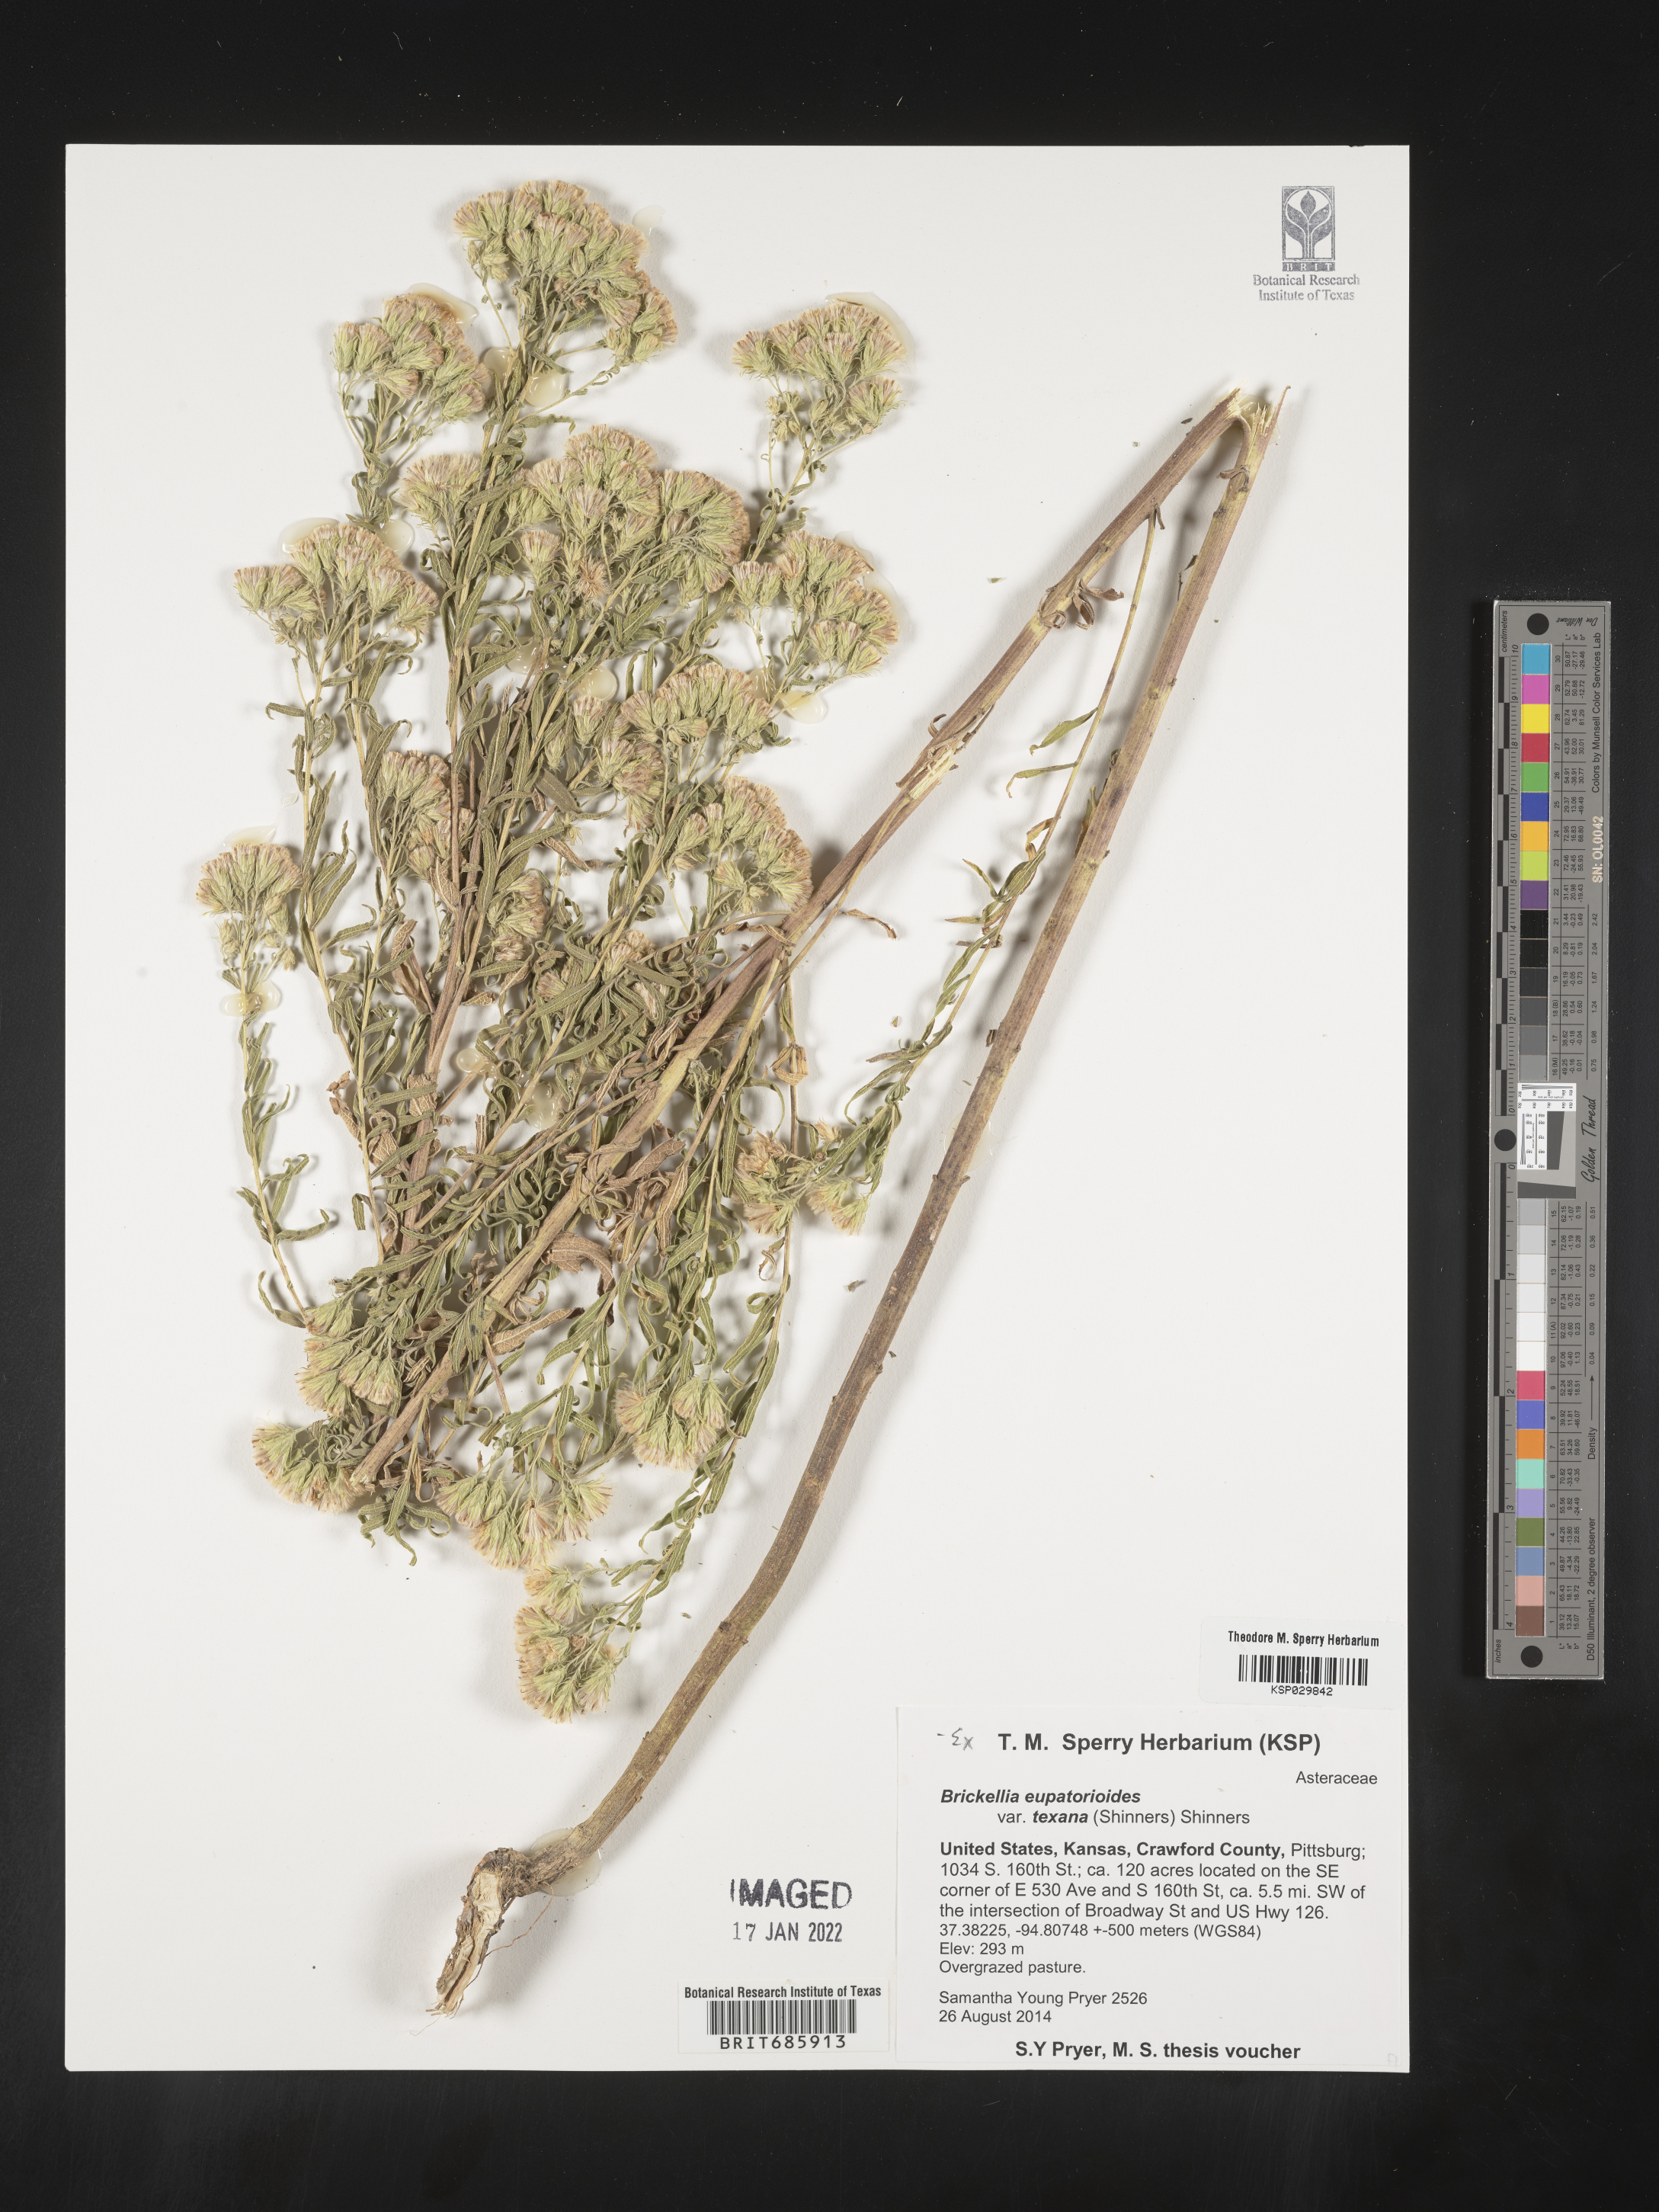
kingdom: Plantae
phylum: Tracheophyta
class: Magnoliopsida
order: Asterales
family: Asteraceae
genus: Brickellia
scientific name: Brickellia macranthra
